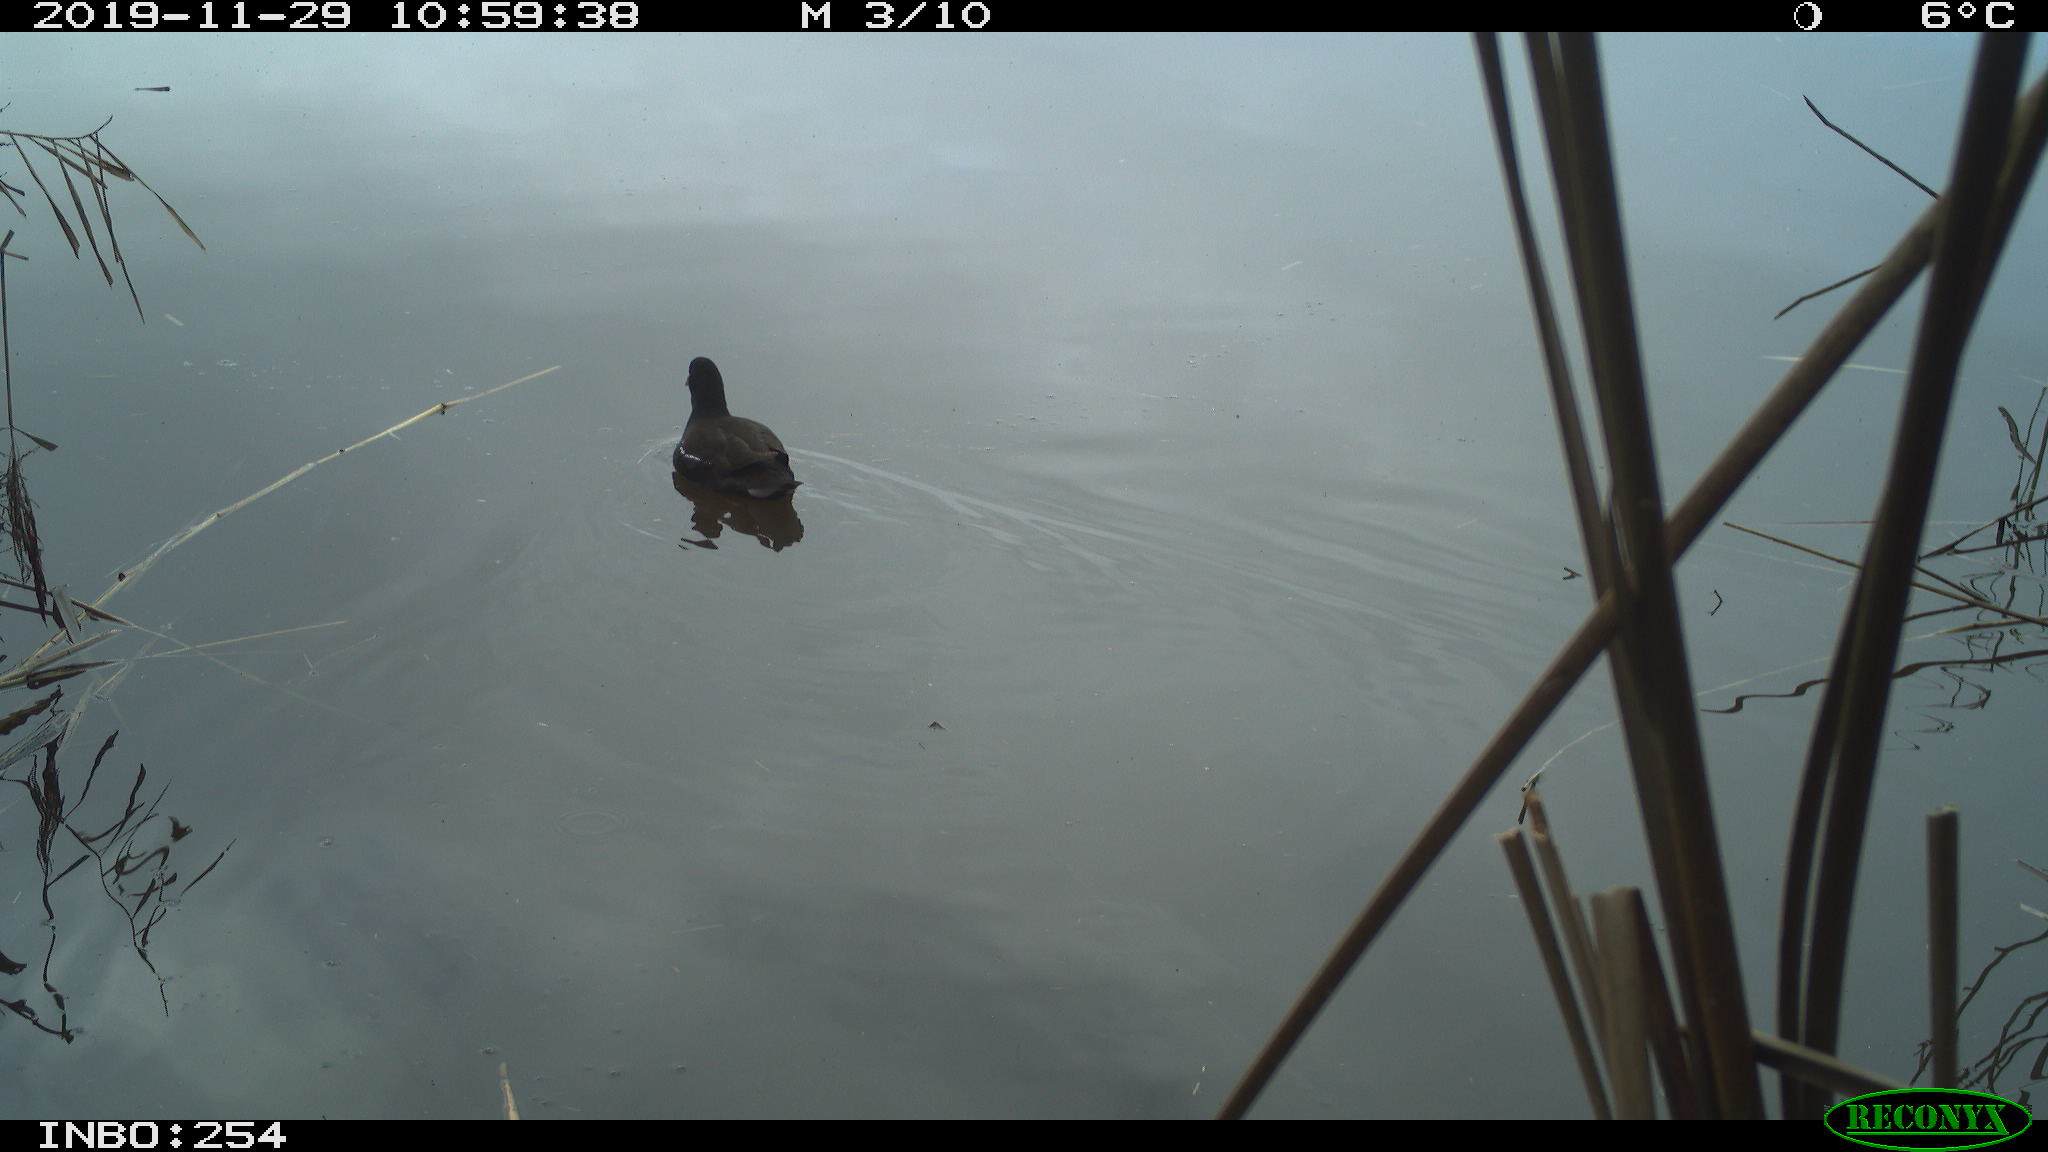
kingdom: Animalia
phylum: Chordata
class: Aves
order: Gruiformes
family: Rallidae
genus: Gallinula
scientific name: Gallinula chloropus
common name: Common moorhen
